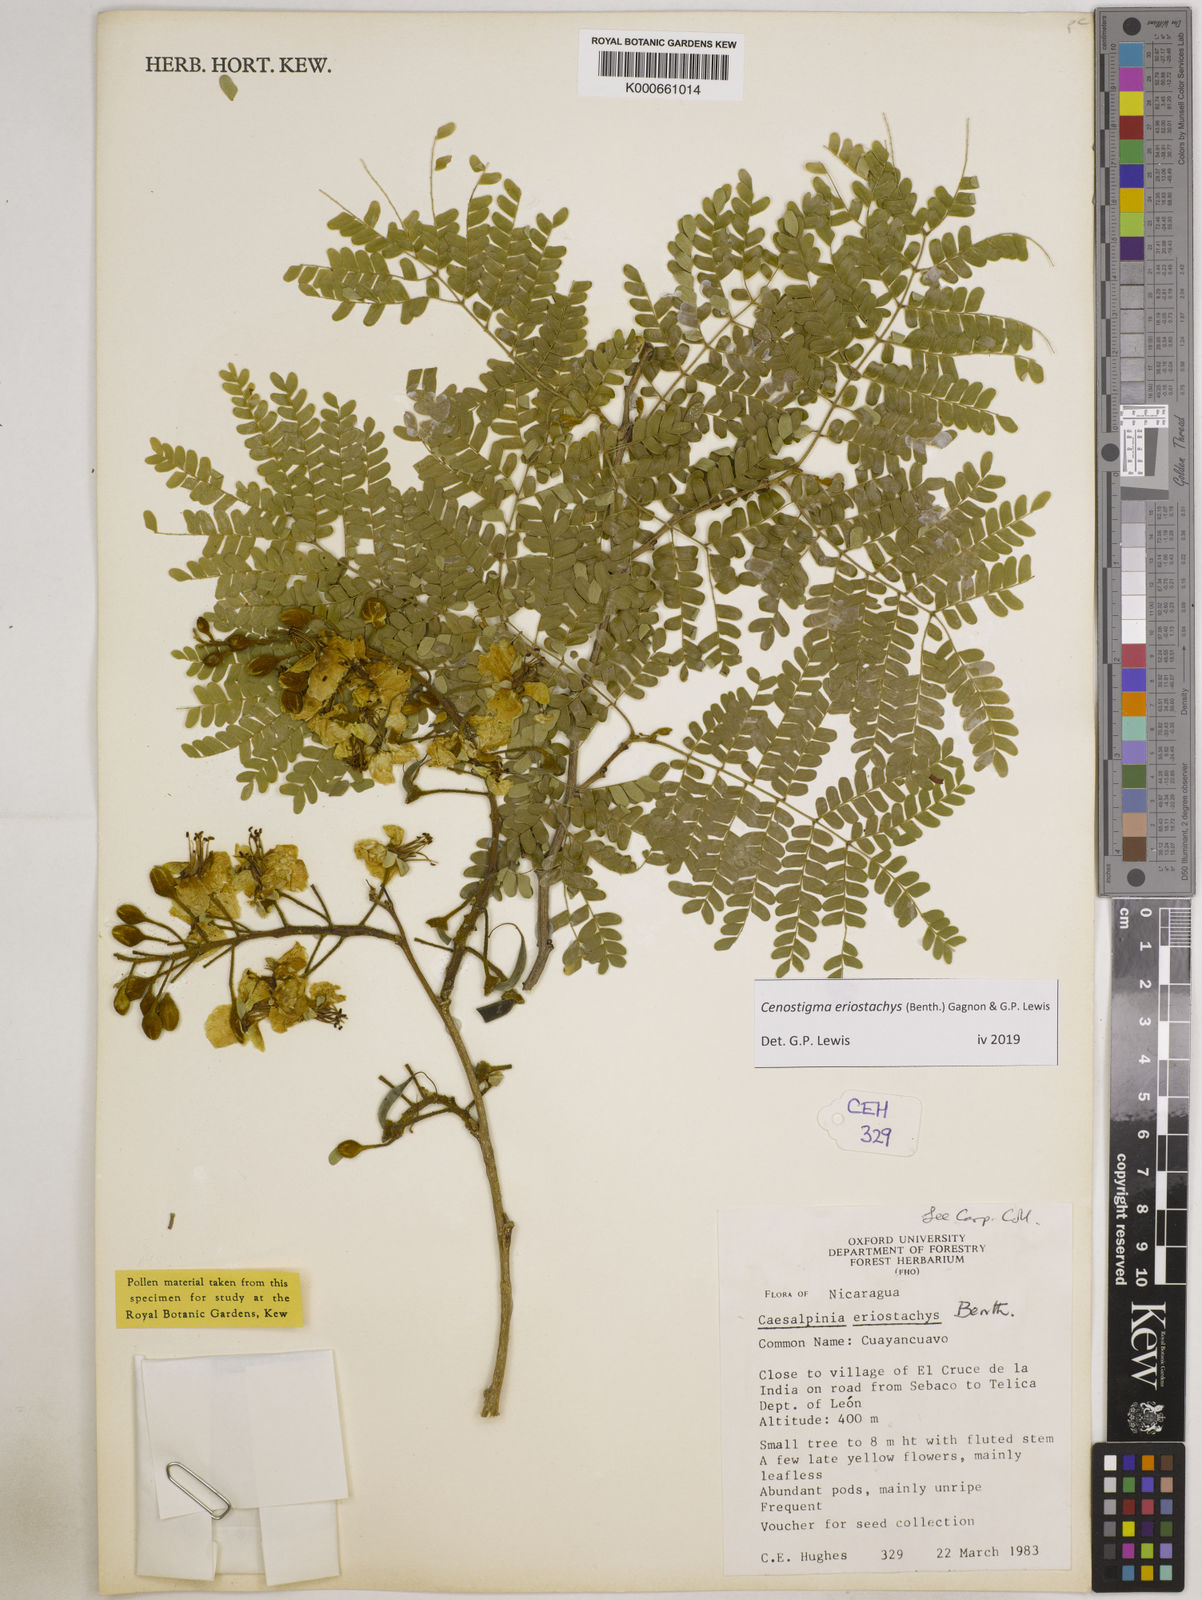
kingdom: Plantae
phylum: Tracheophyta
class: Magnoliopsida
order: Fabales
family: Fabaceae
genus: Cenostigma
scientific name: Cenostigma eriostachys
